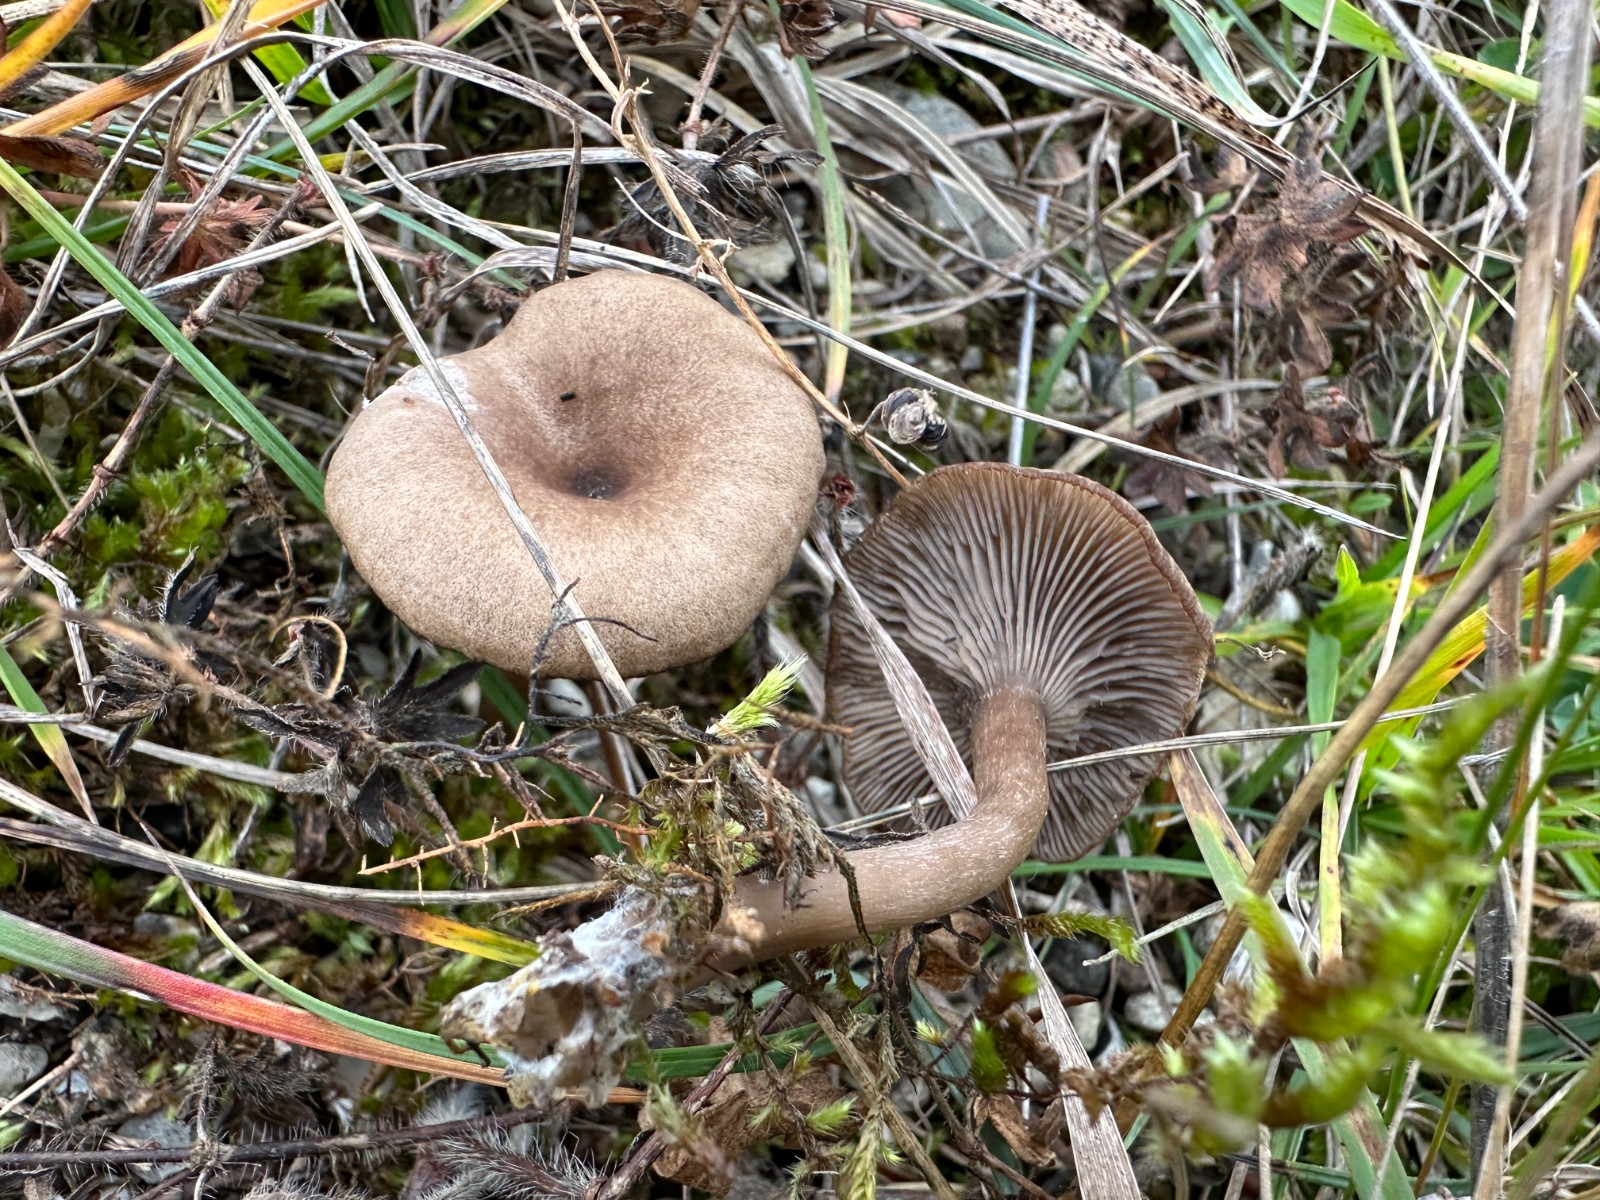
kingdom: Fungi
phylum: Basidiomycota
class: Agaricomycetes
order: Agaricales
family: Pseudoclitocybaceae
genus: Pseudoclitocybe
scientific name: Pseudoclitocybe expallens
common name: lille bægertragthat
